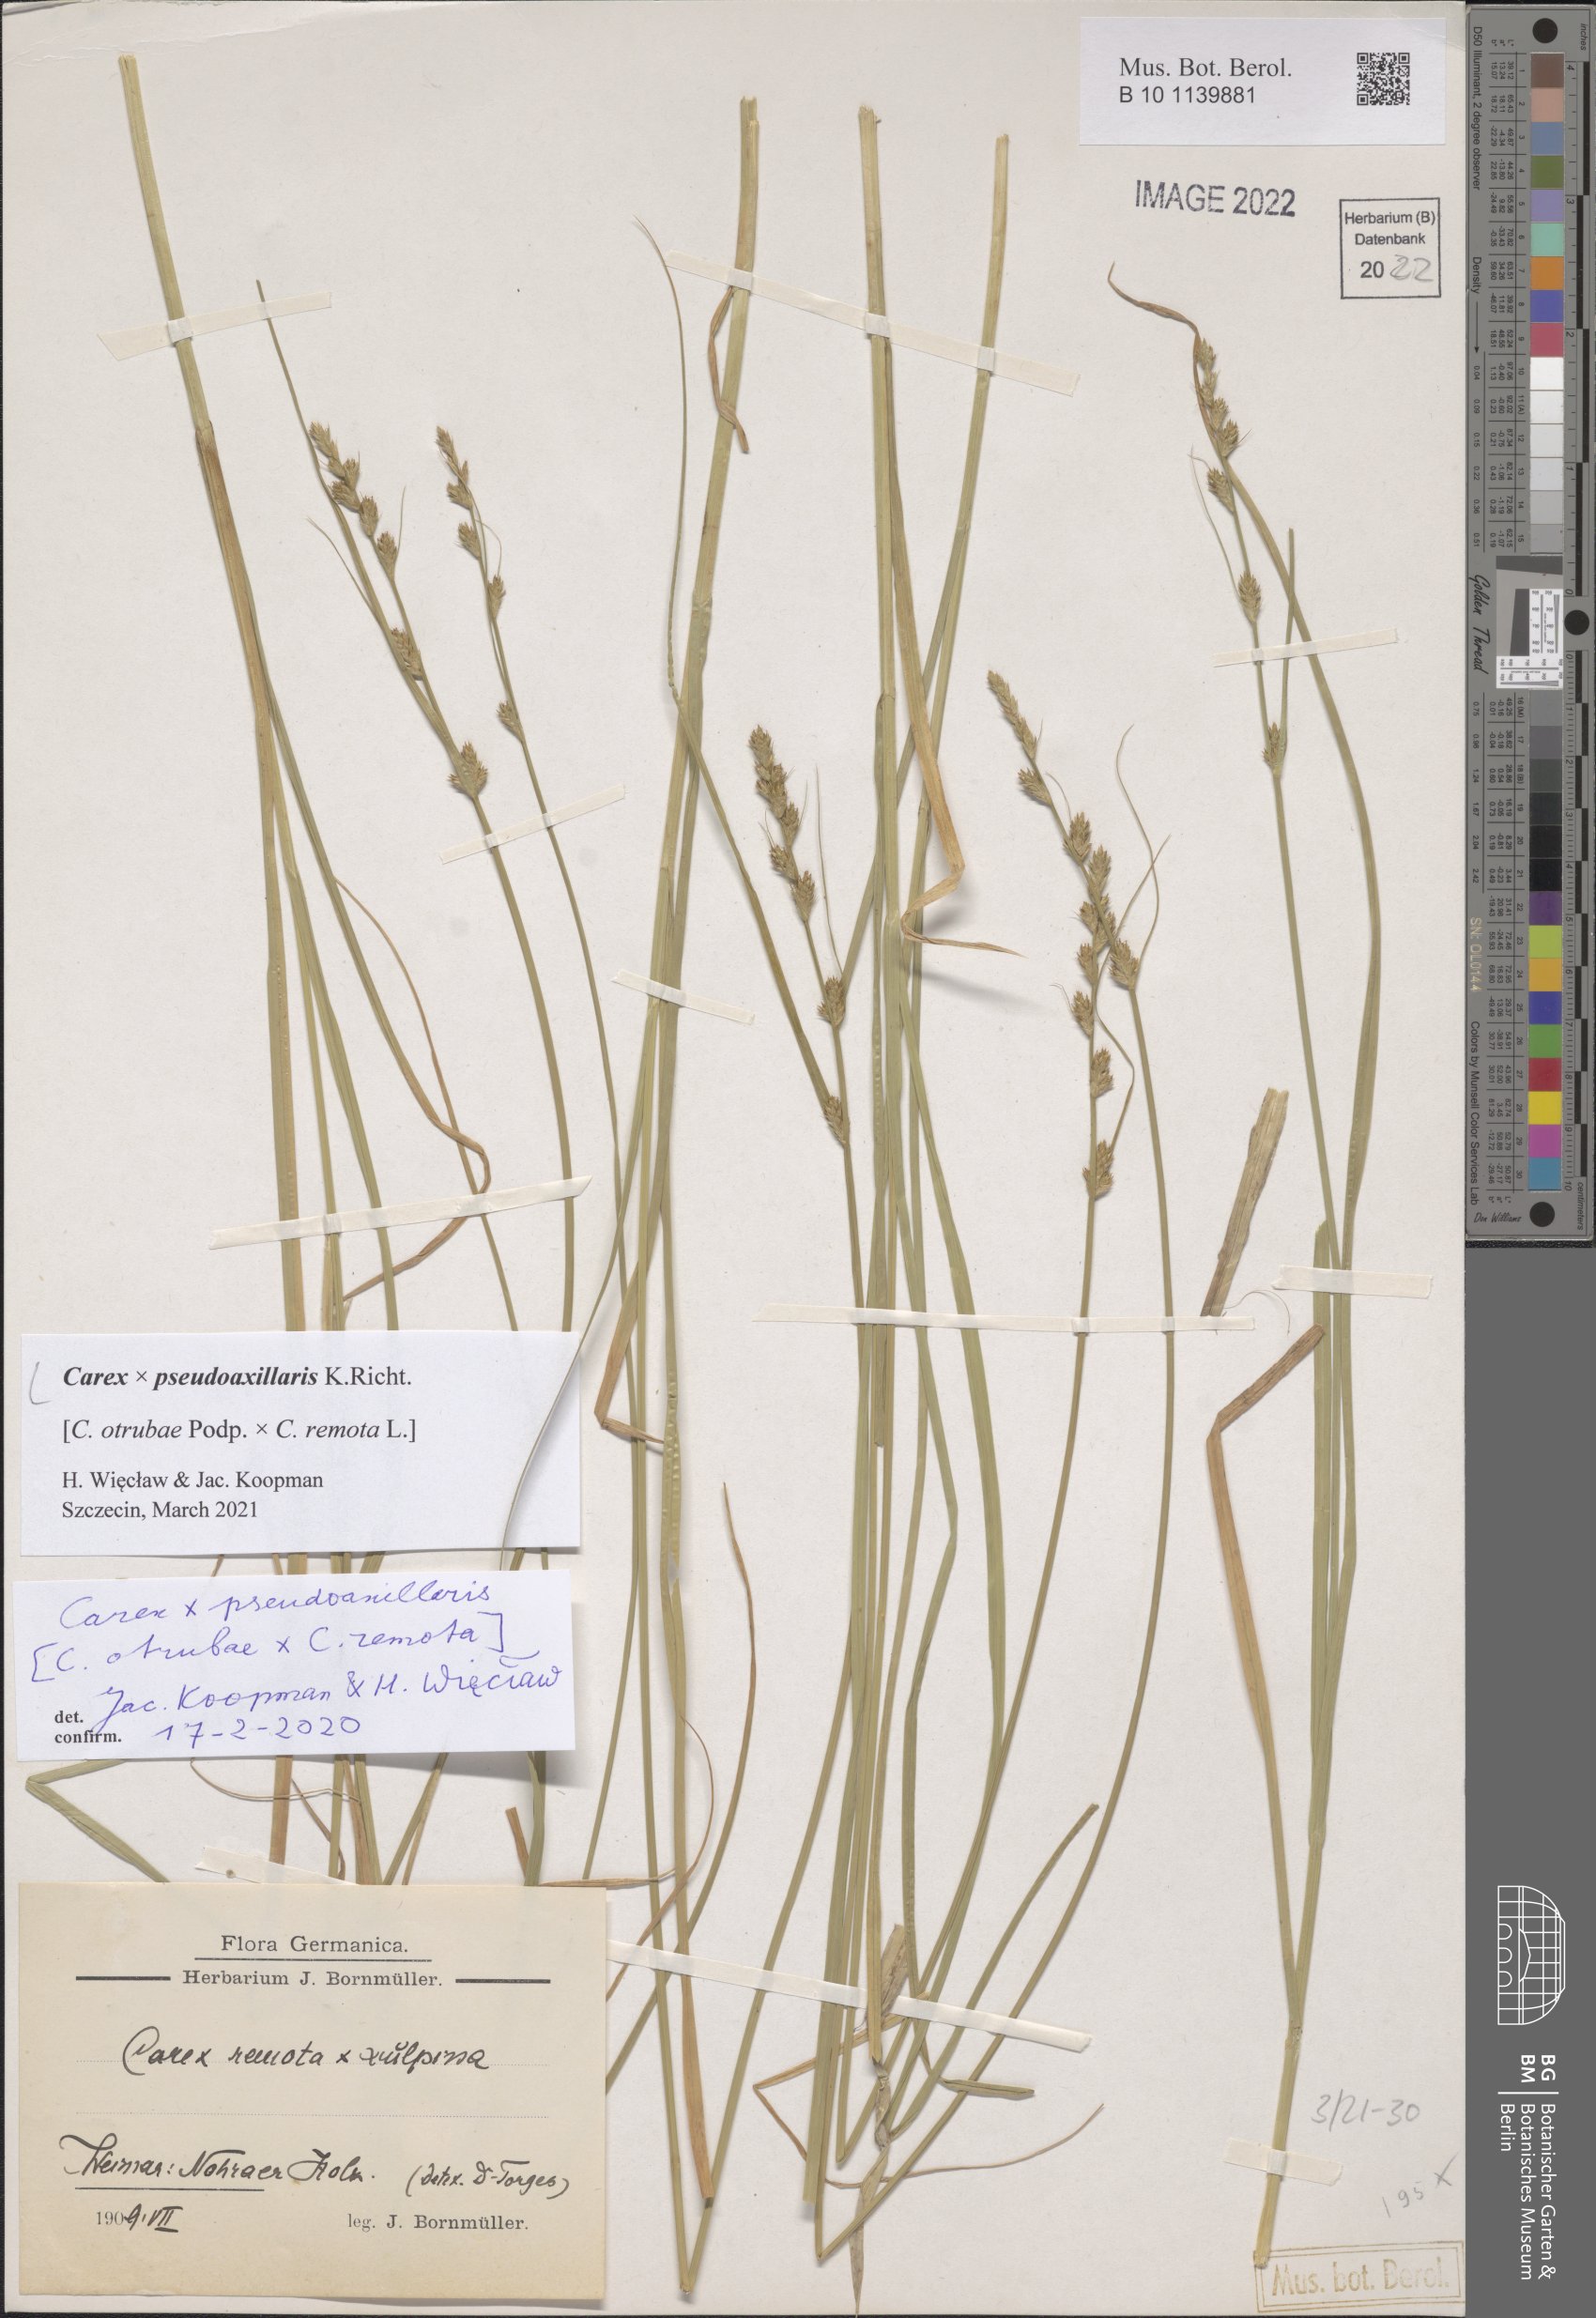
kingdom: Plantae
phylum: Tracheophyta
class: Liliopsida
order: Poales
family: Cyperaceae
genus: Carex
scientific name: Carex pseudoaxillaris
